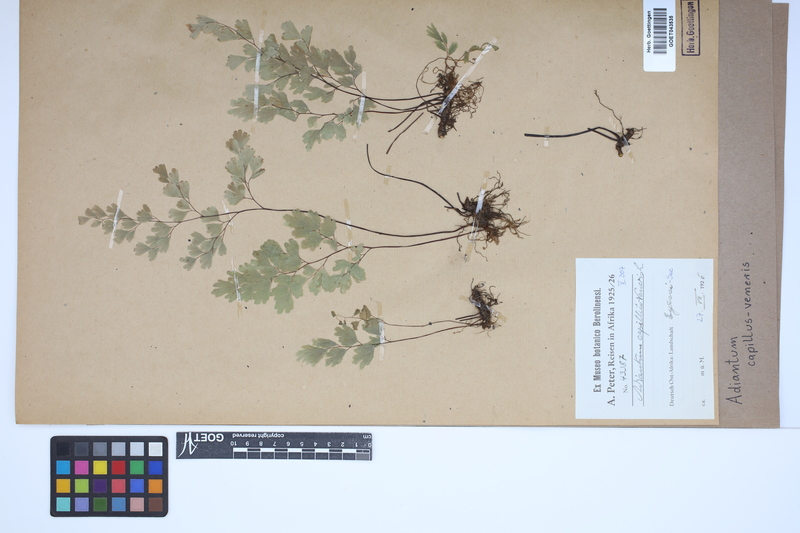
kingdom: Plantae
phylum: Tracheophyta
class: Polypodiopsida
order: Polypodiales
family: Pteridaceae
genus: Adiantum
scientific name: Adiantum capillus-veneris
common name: Maidenhair fern
